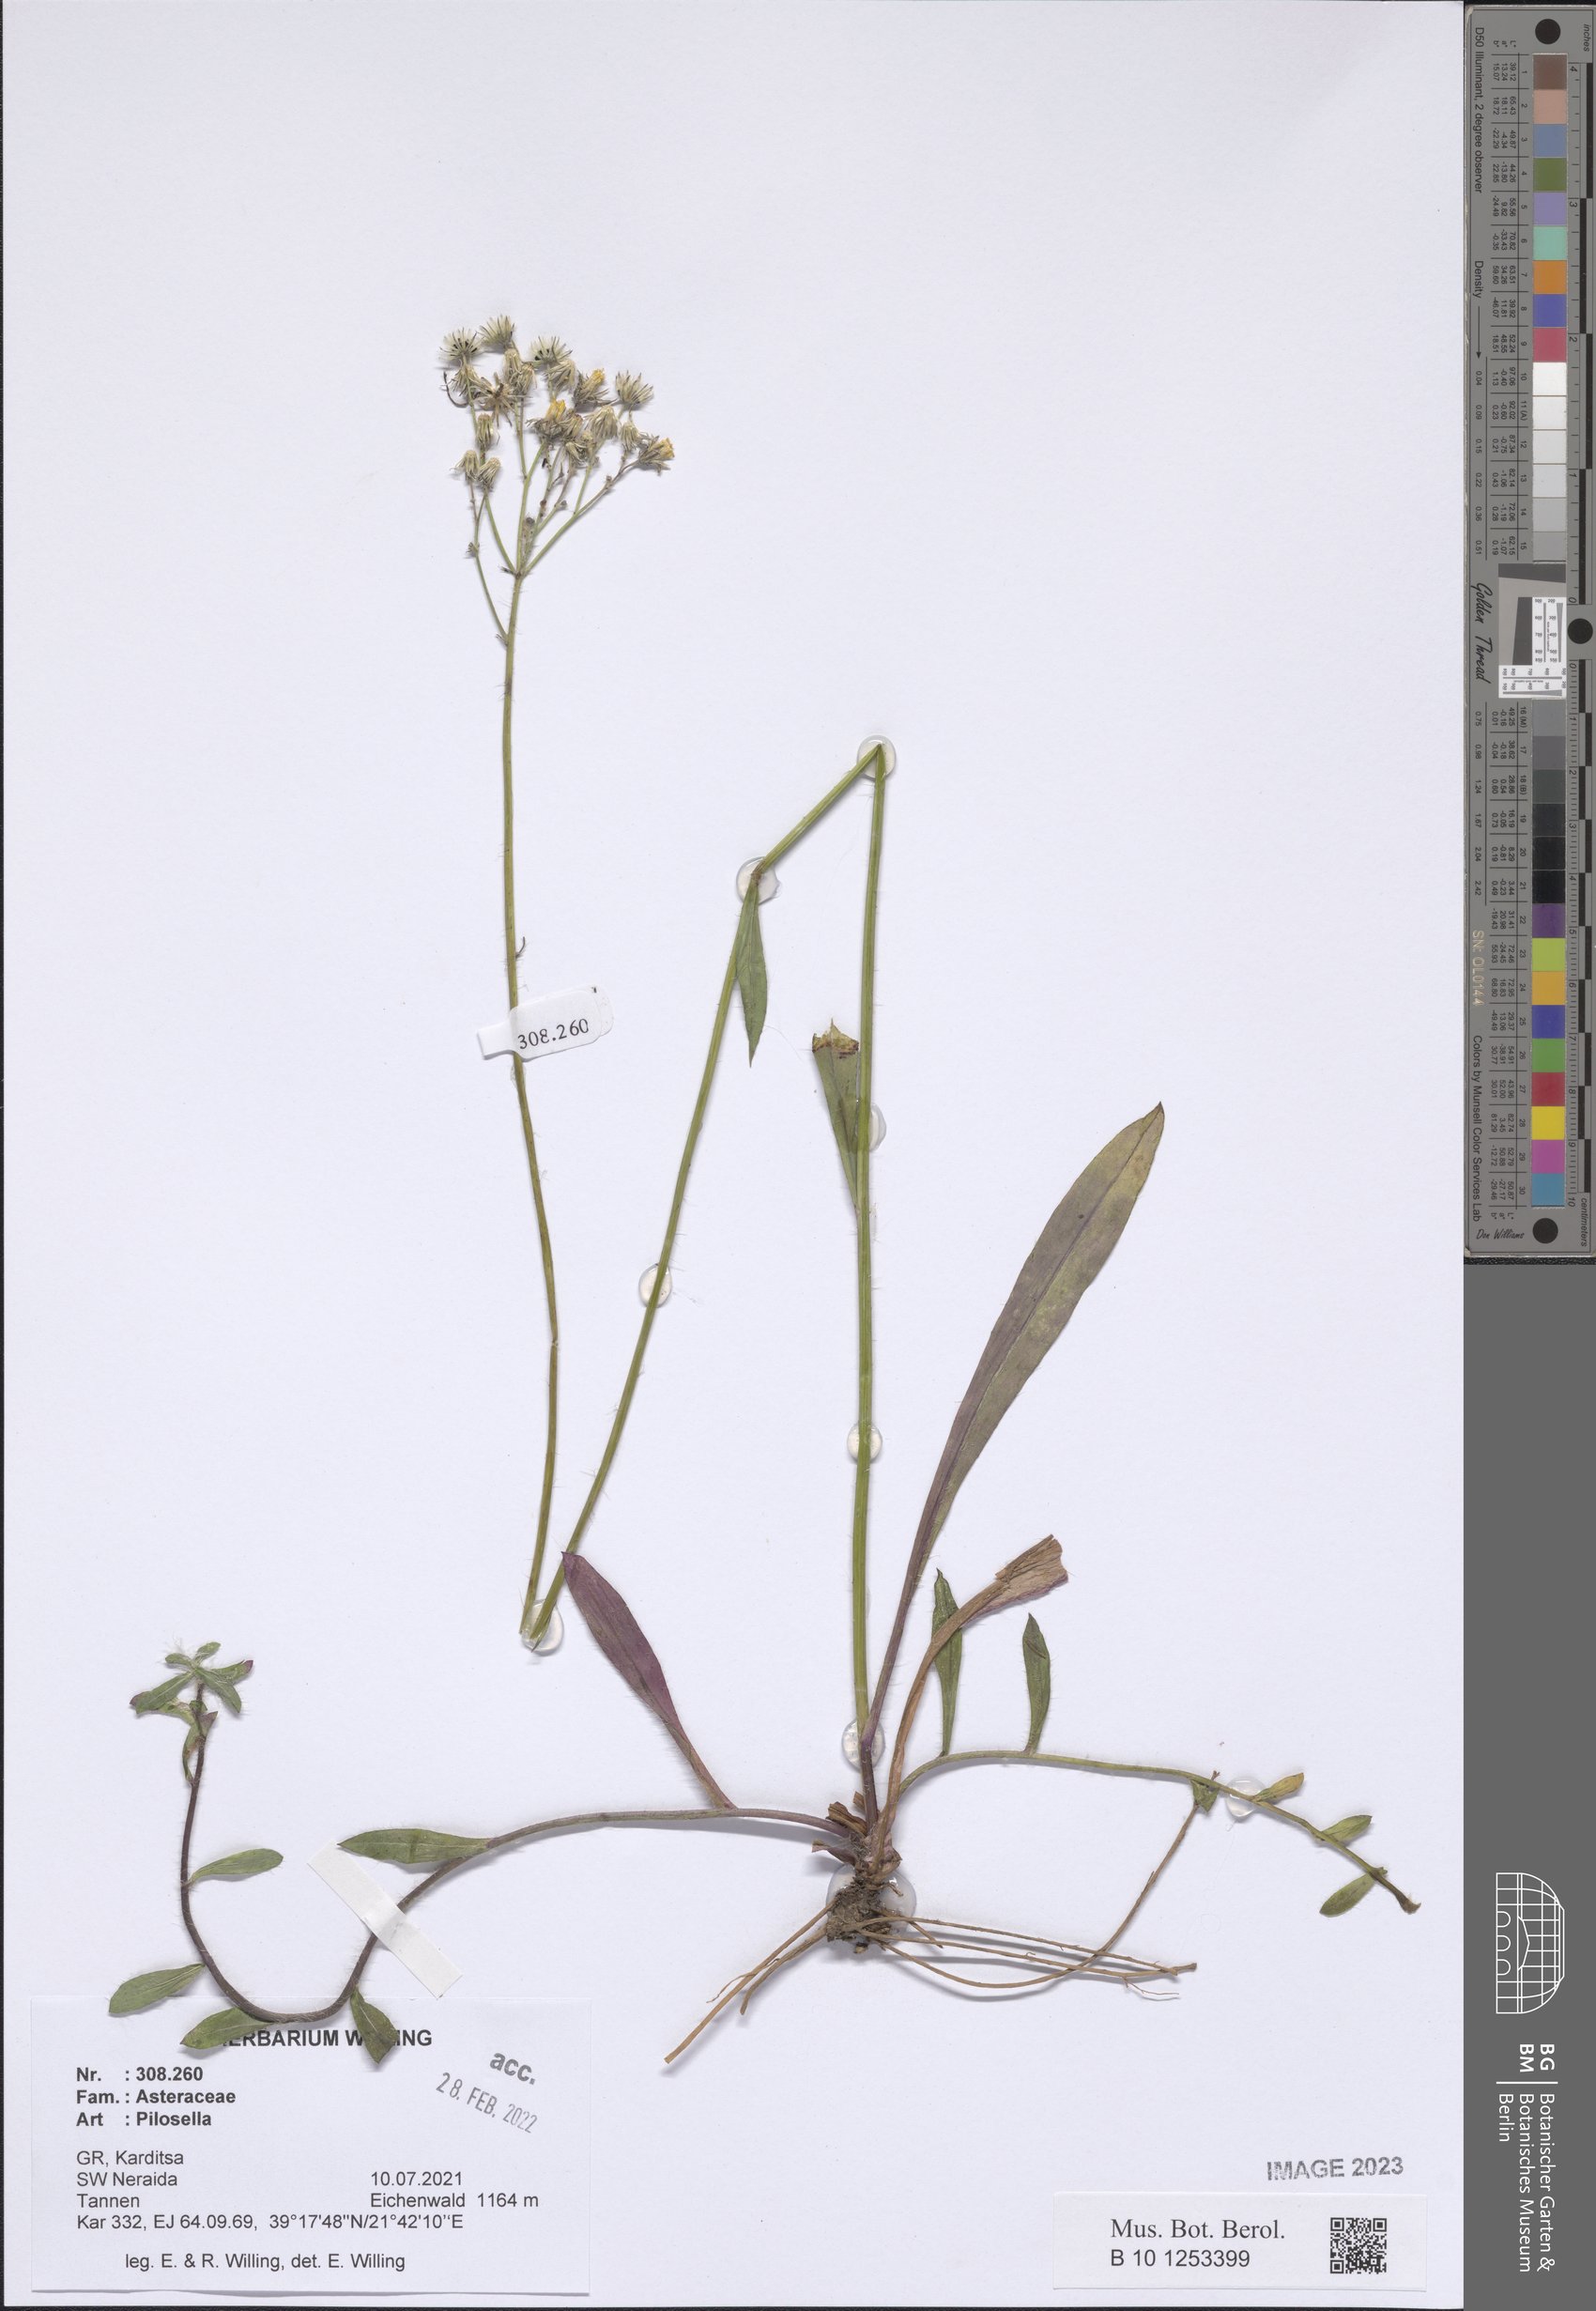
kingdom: Plantae
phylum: Tracheophyta
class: Magnoliopsida
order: Asterales
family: Asteraceae
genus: Pilosella
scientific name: Pilosella
